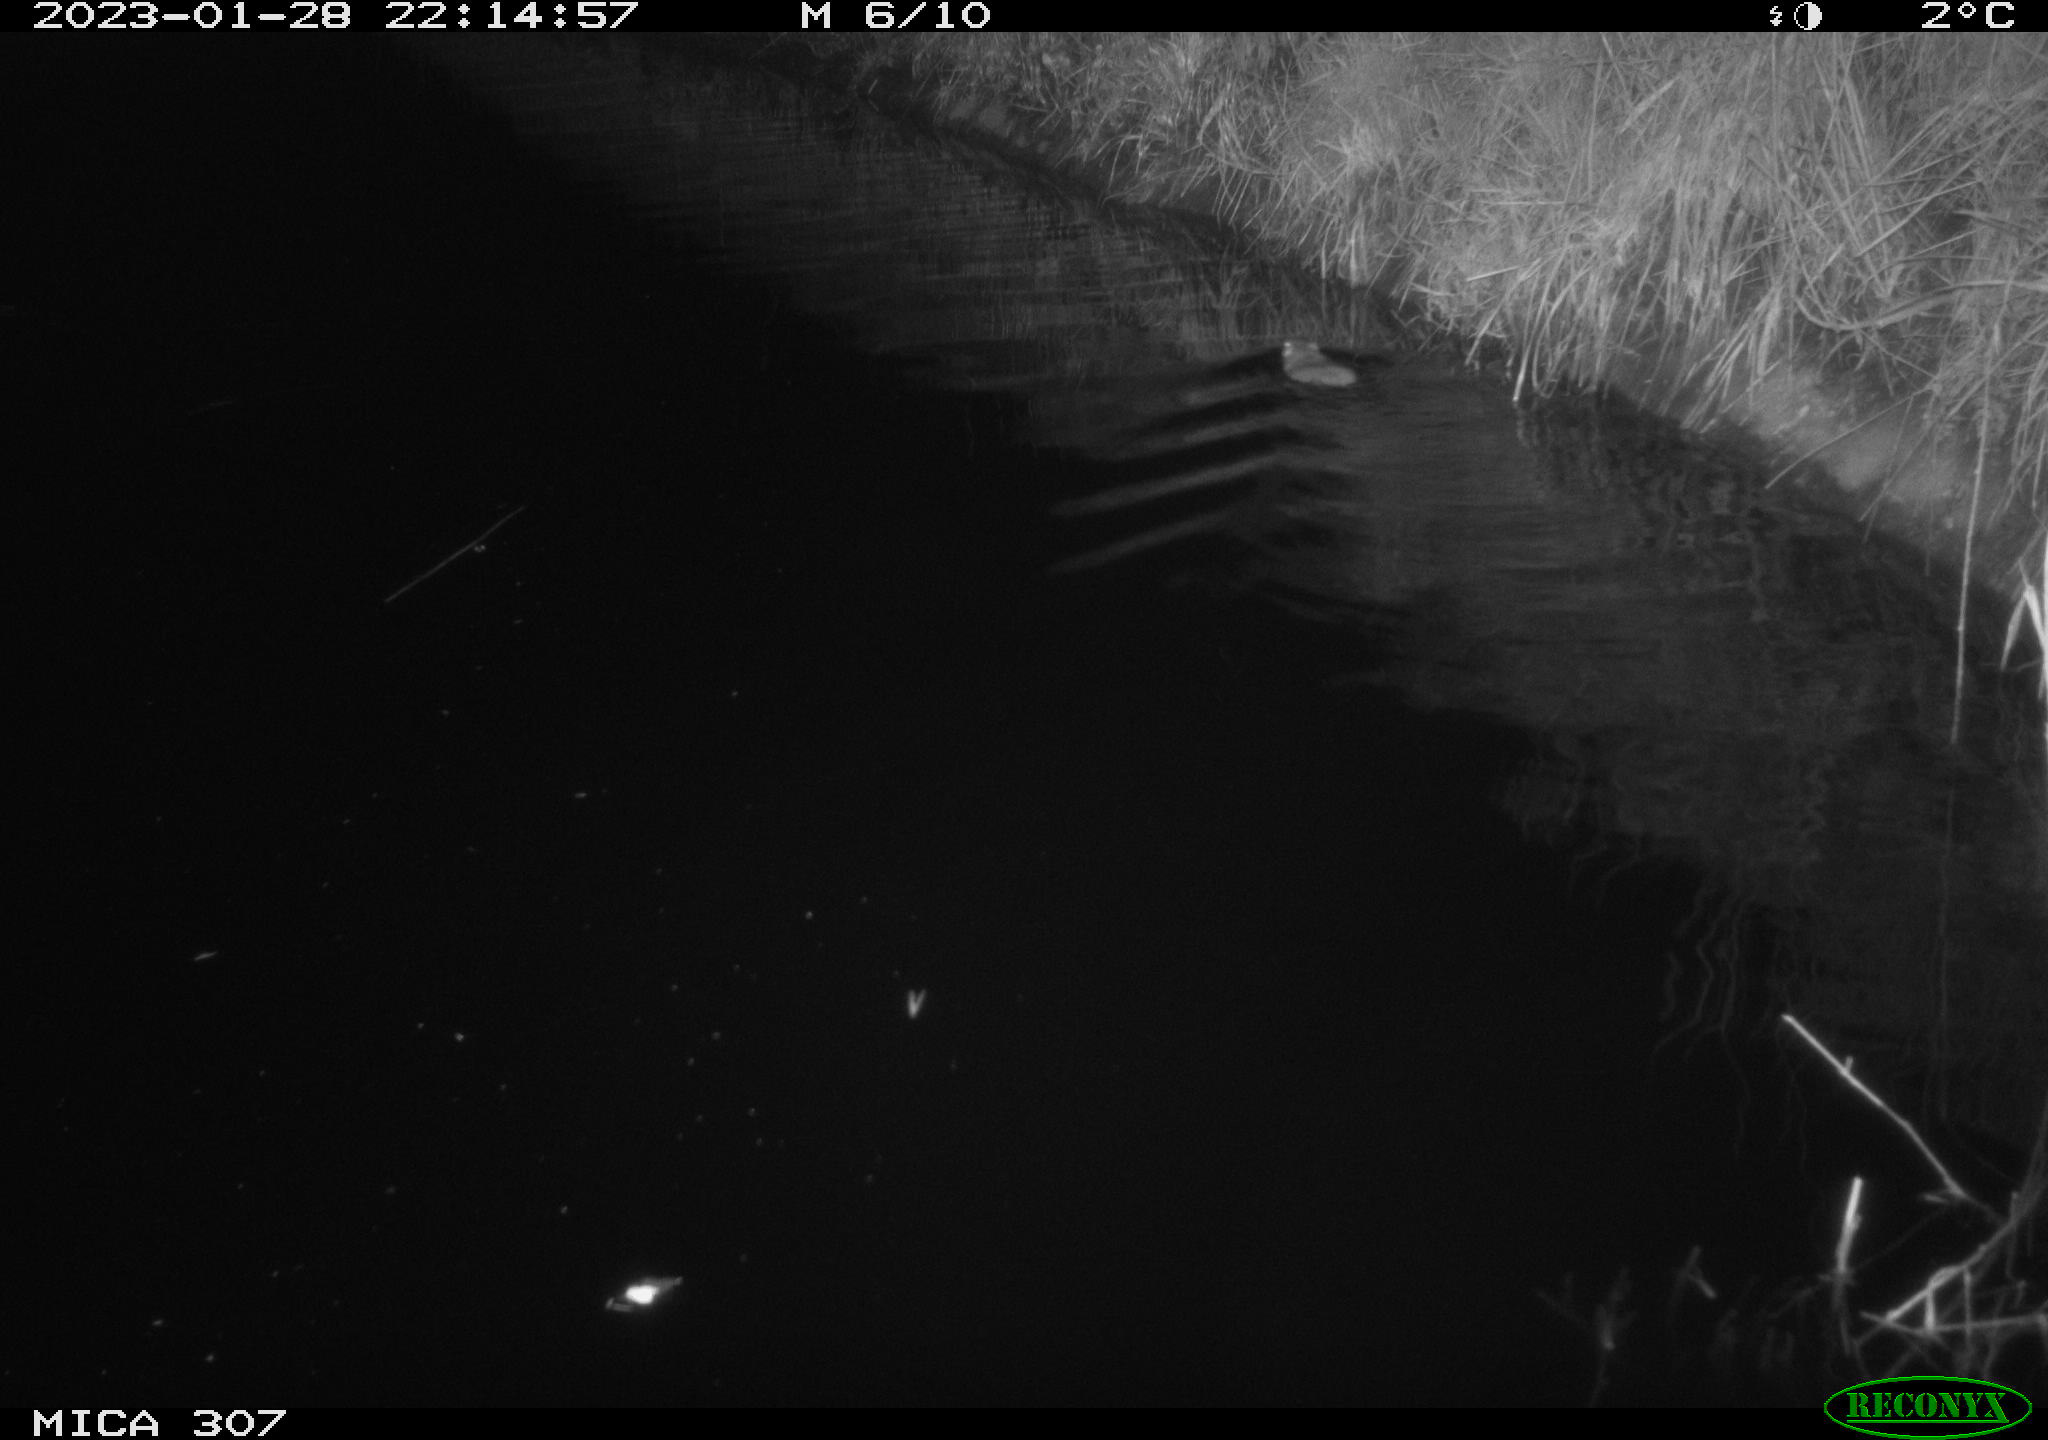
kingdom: Animalia
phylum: Chordata
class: Mammalia
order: Rodentia
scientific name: Rodentia
